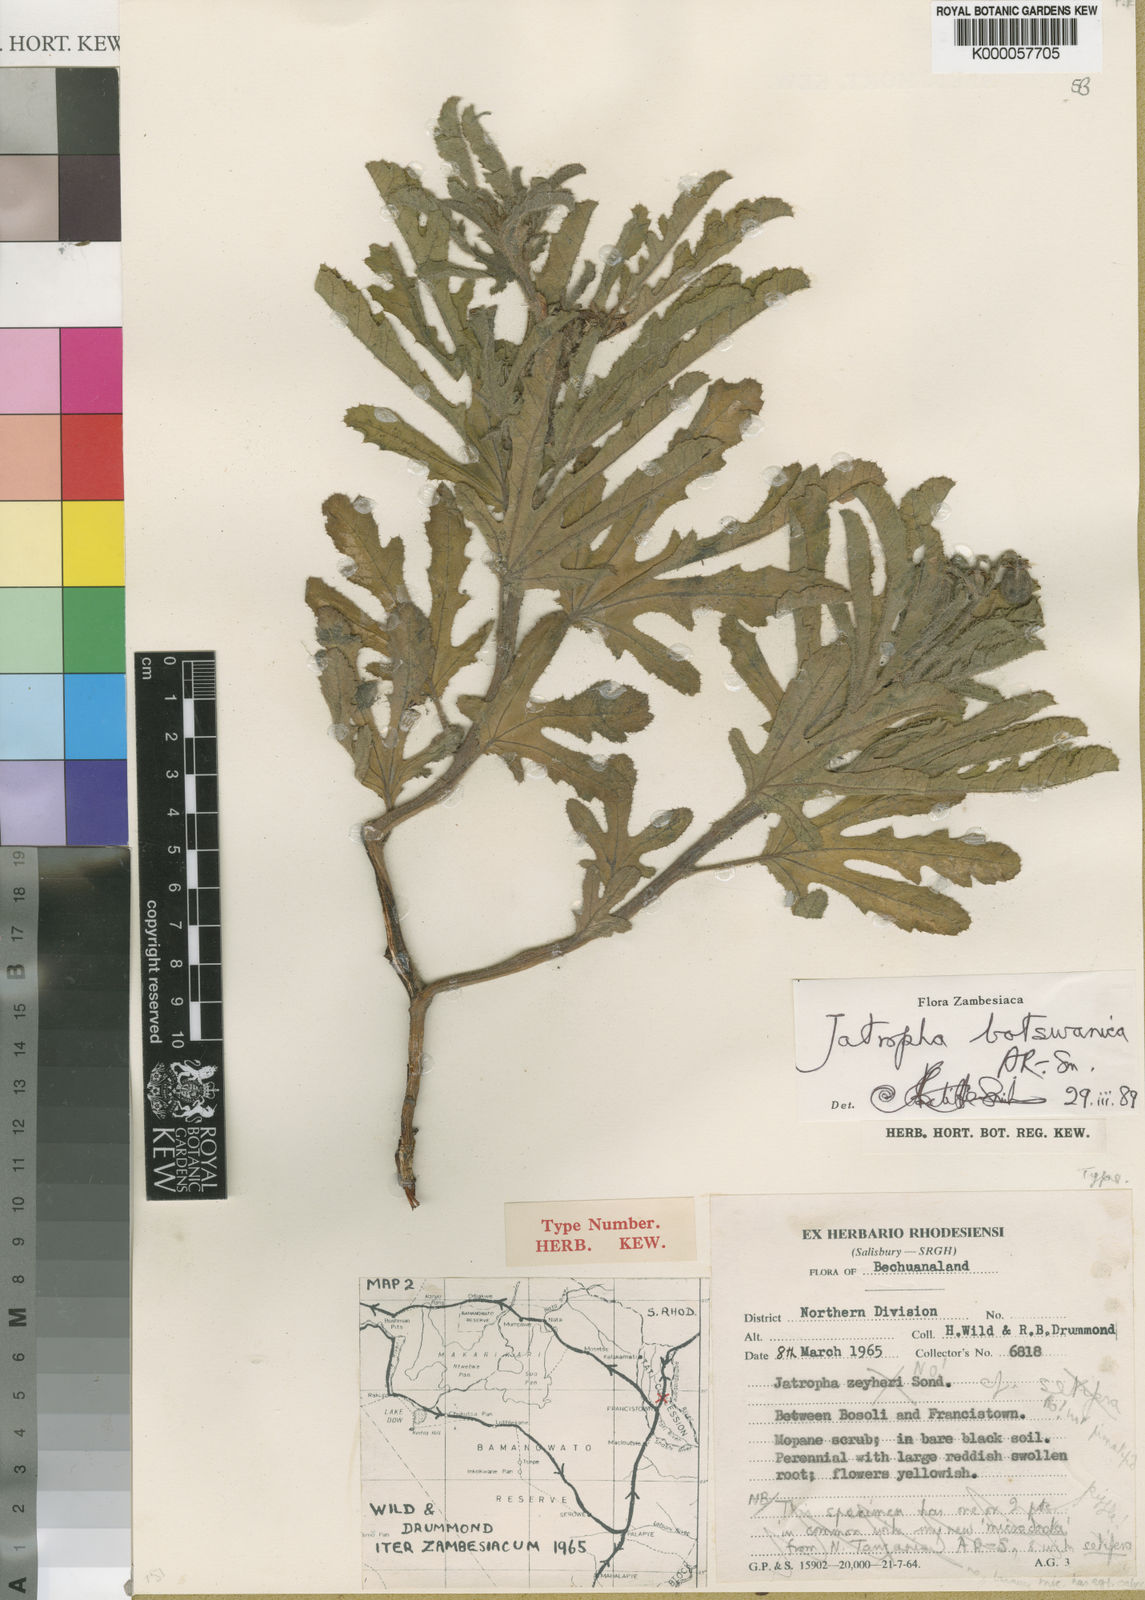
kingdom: Plantae
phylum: Tracheophyta
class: Magnoliopsida
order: Malpighiales
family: Euphorbiaceae
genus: Jatropha
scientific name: Jatropha botswanica
